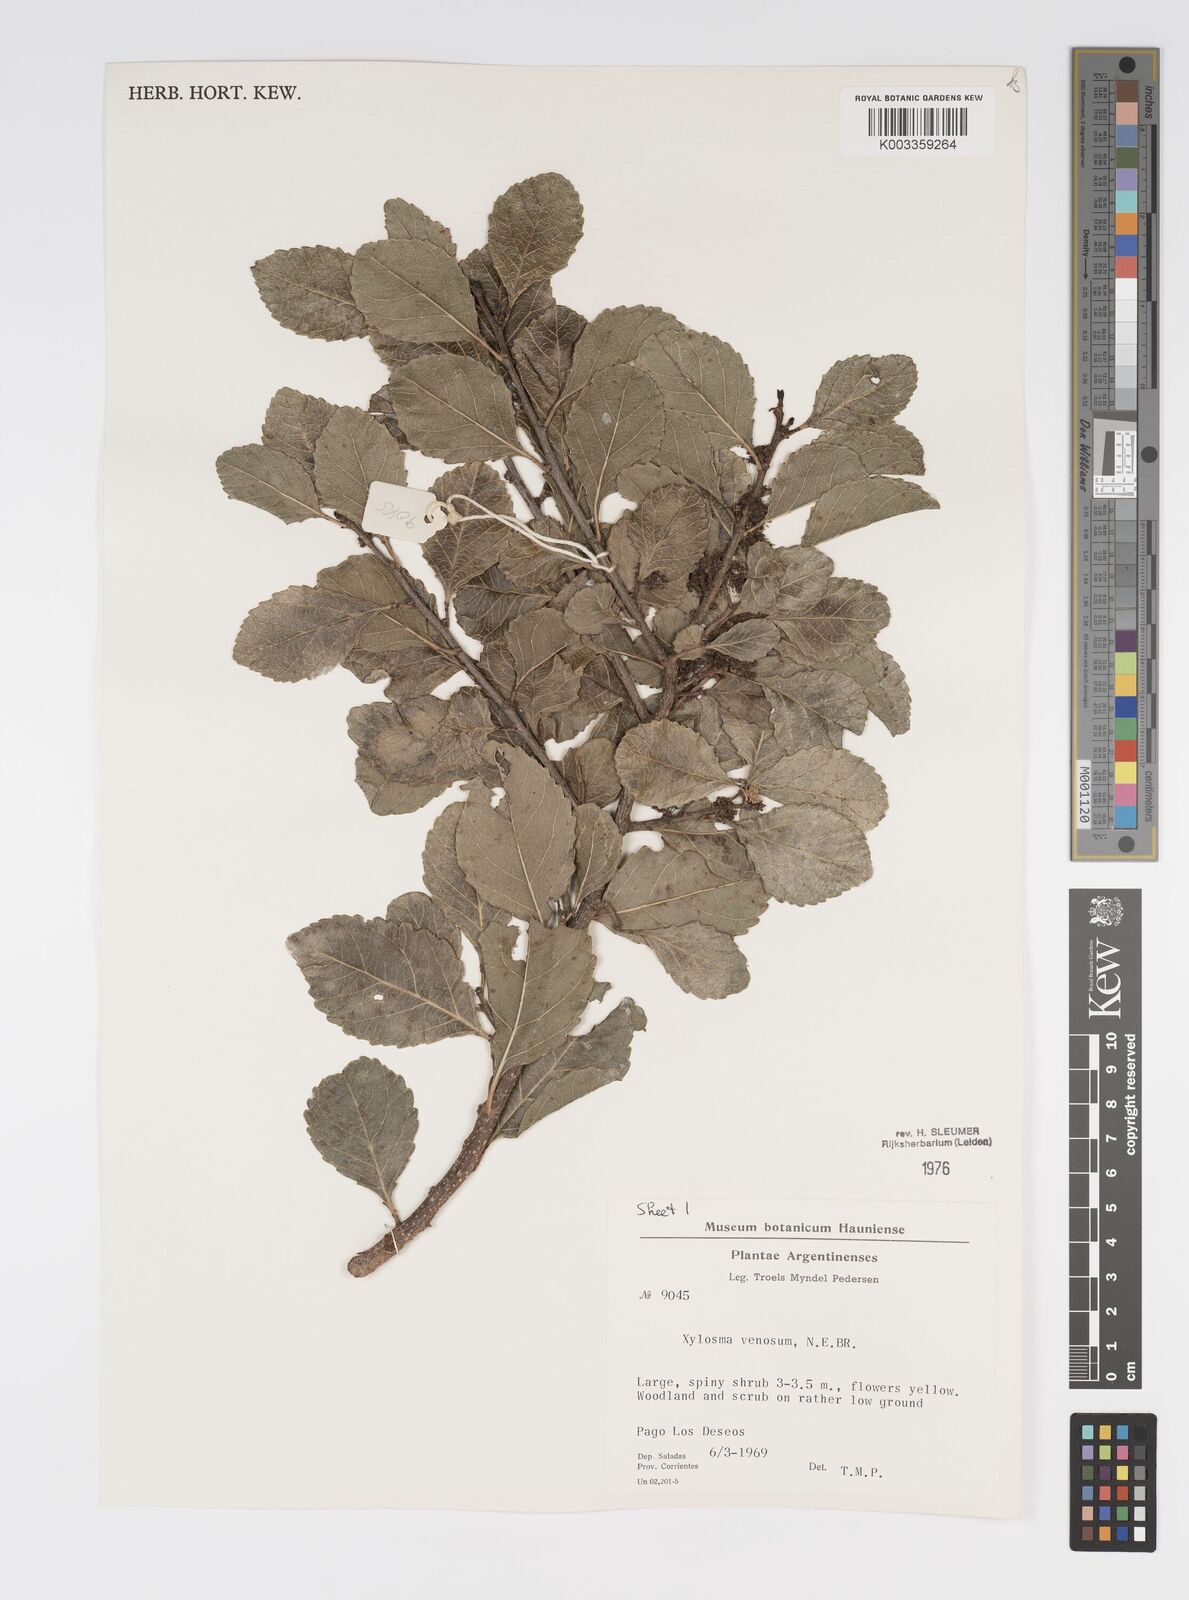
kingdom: Plantae
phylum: Tracheophyta
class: Magnoliopsida
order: Malpighiales
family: Salicaceae
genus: Xylosma
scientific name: Xylosma venosa
